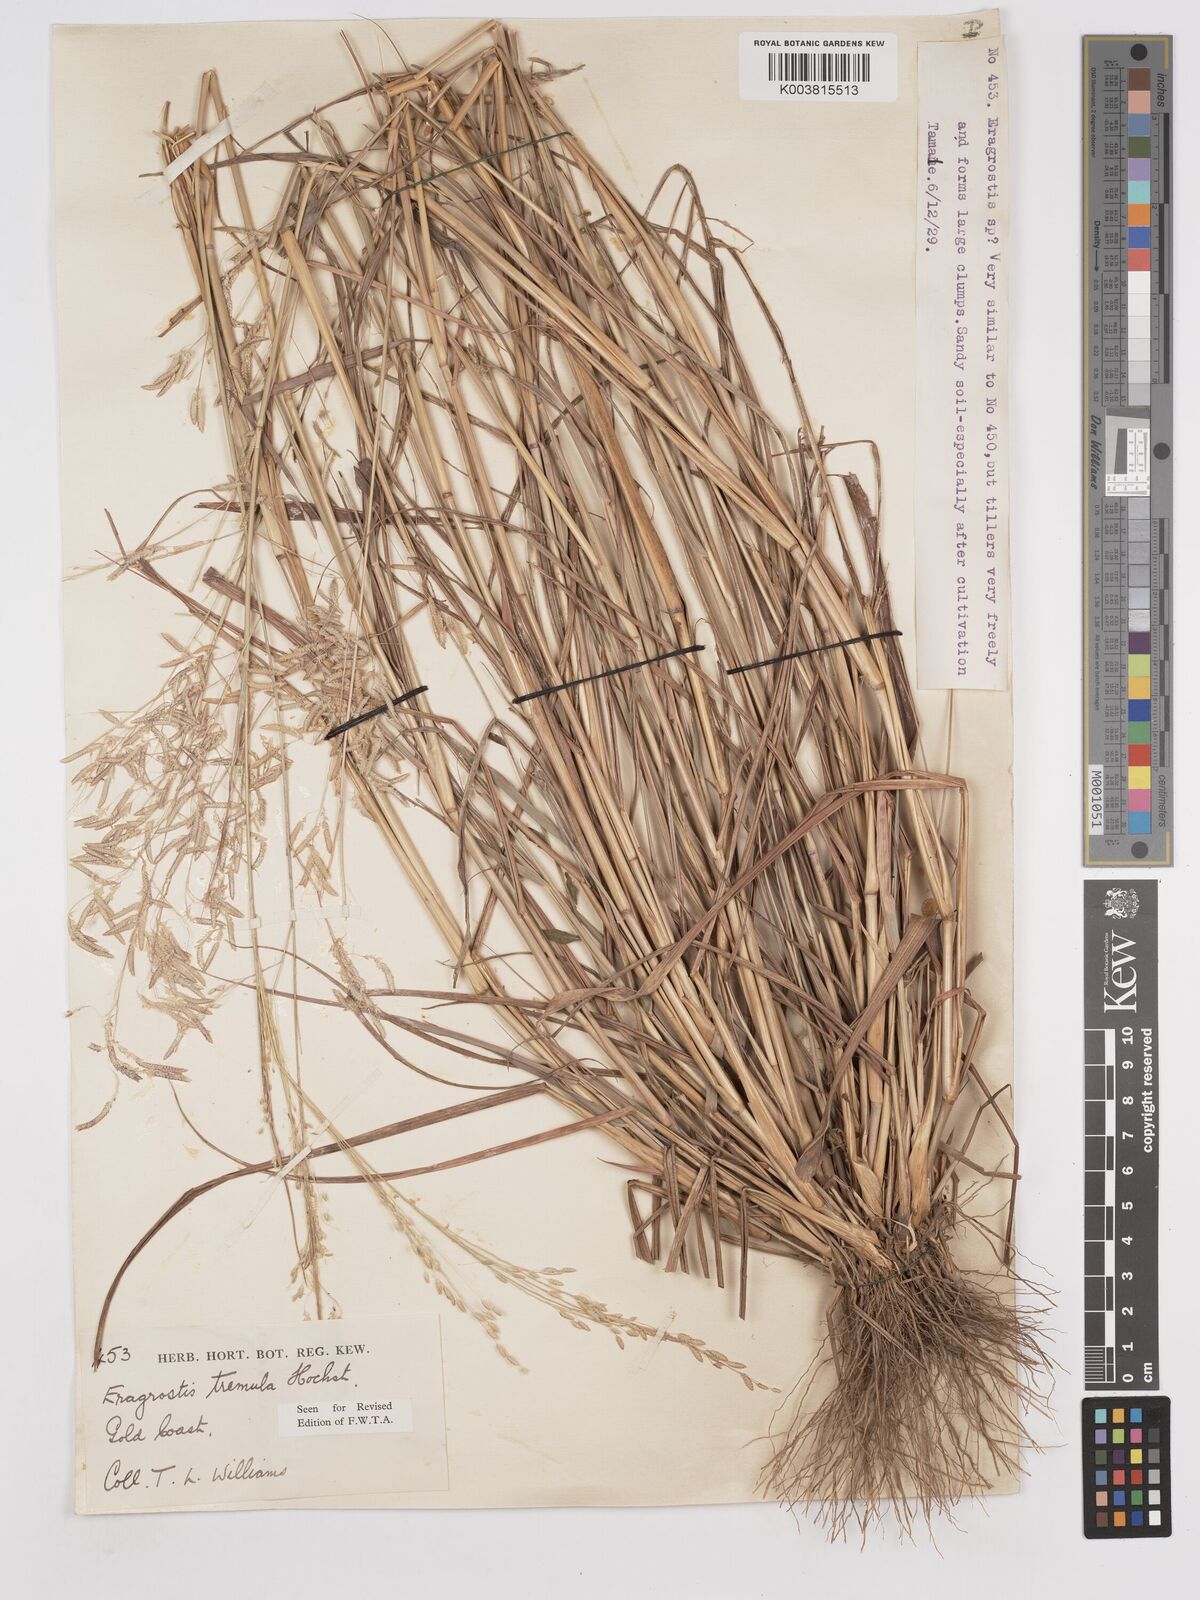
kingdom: Plantae
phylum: Tracheophyta
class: Liliopsida
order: Poales
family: Poaceae
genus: Eragrostis
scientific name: Eragrostis tremula
